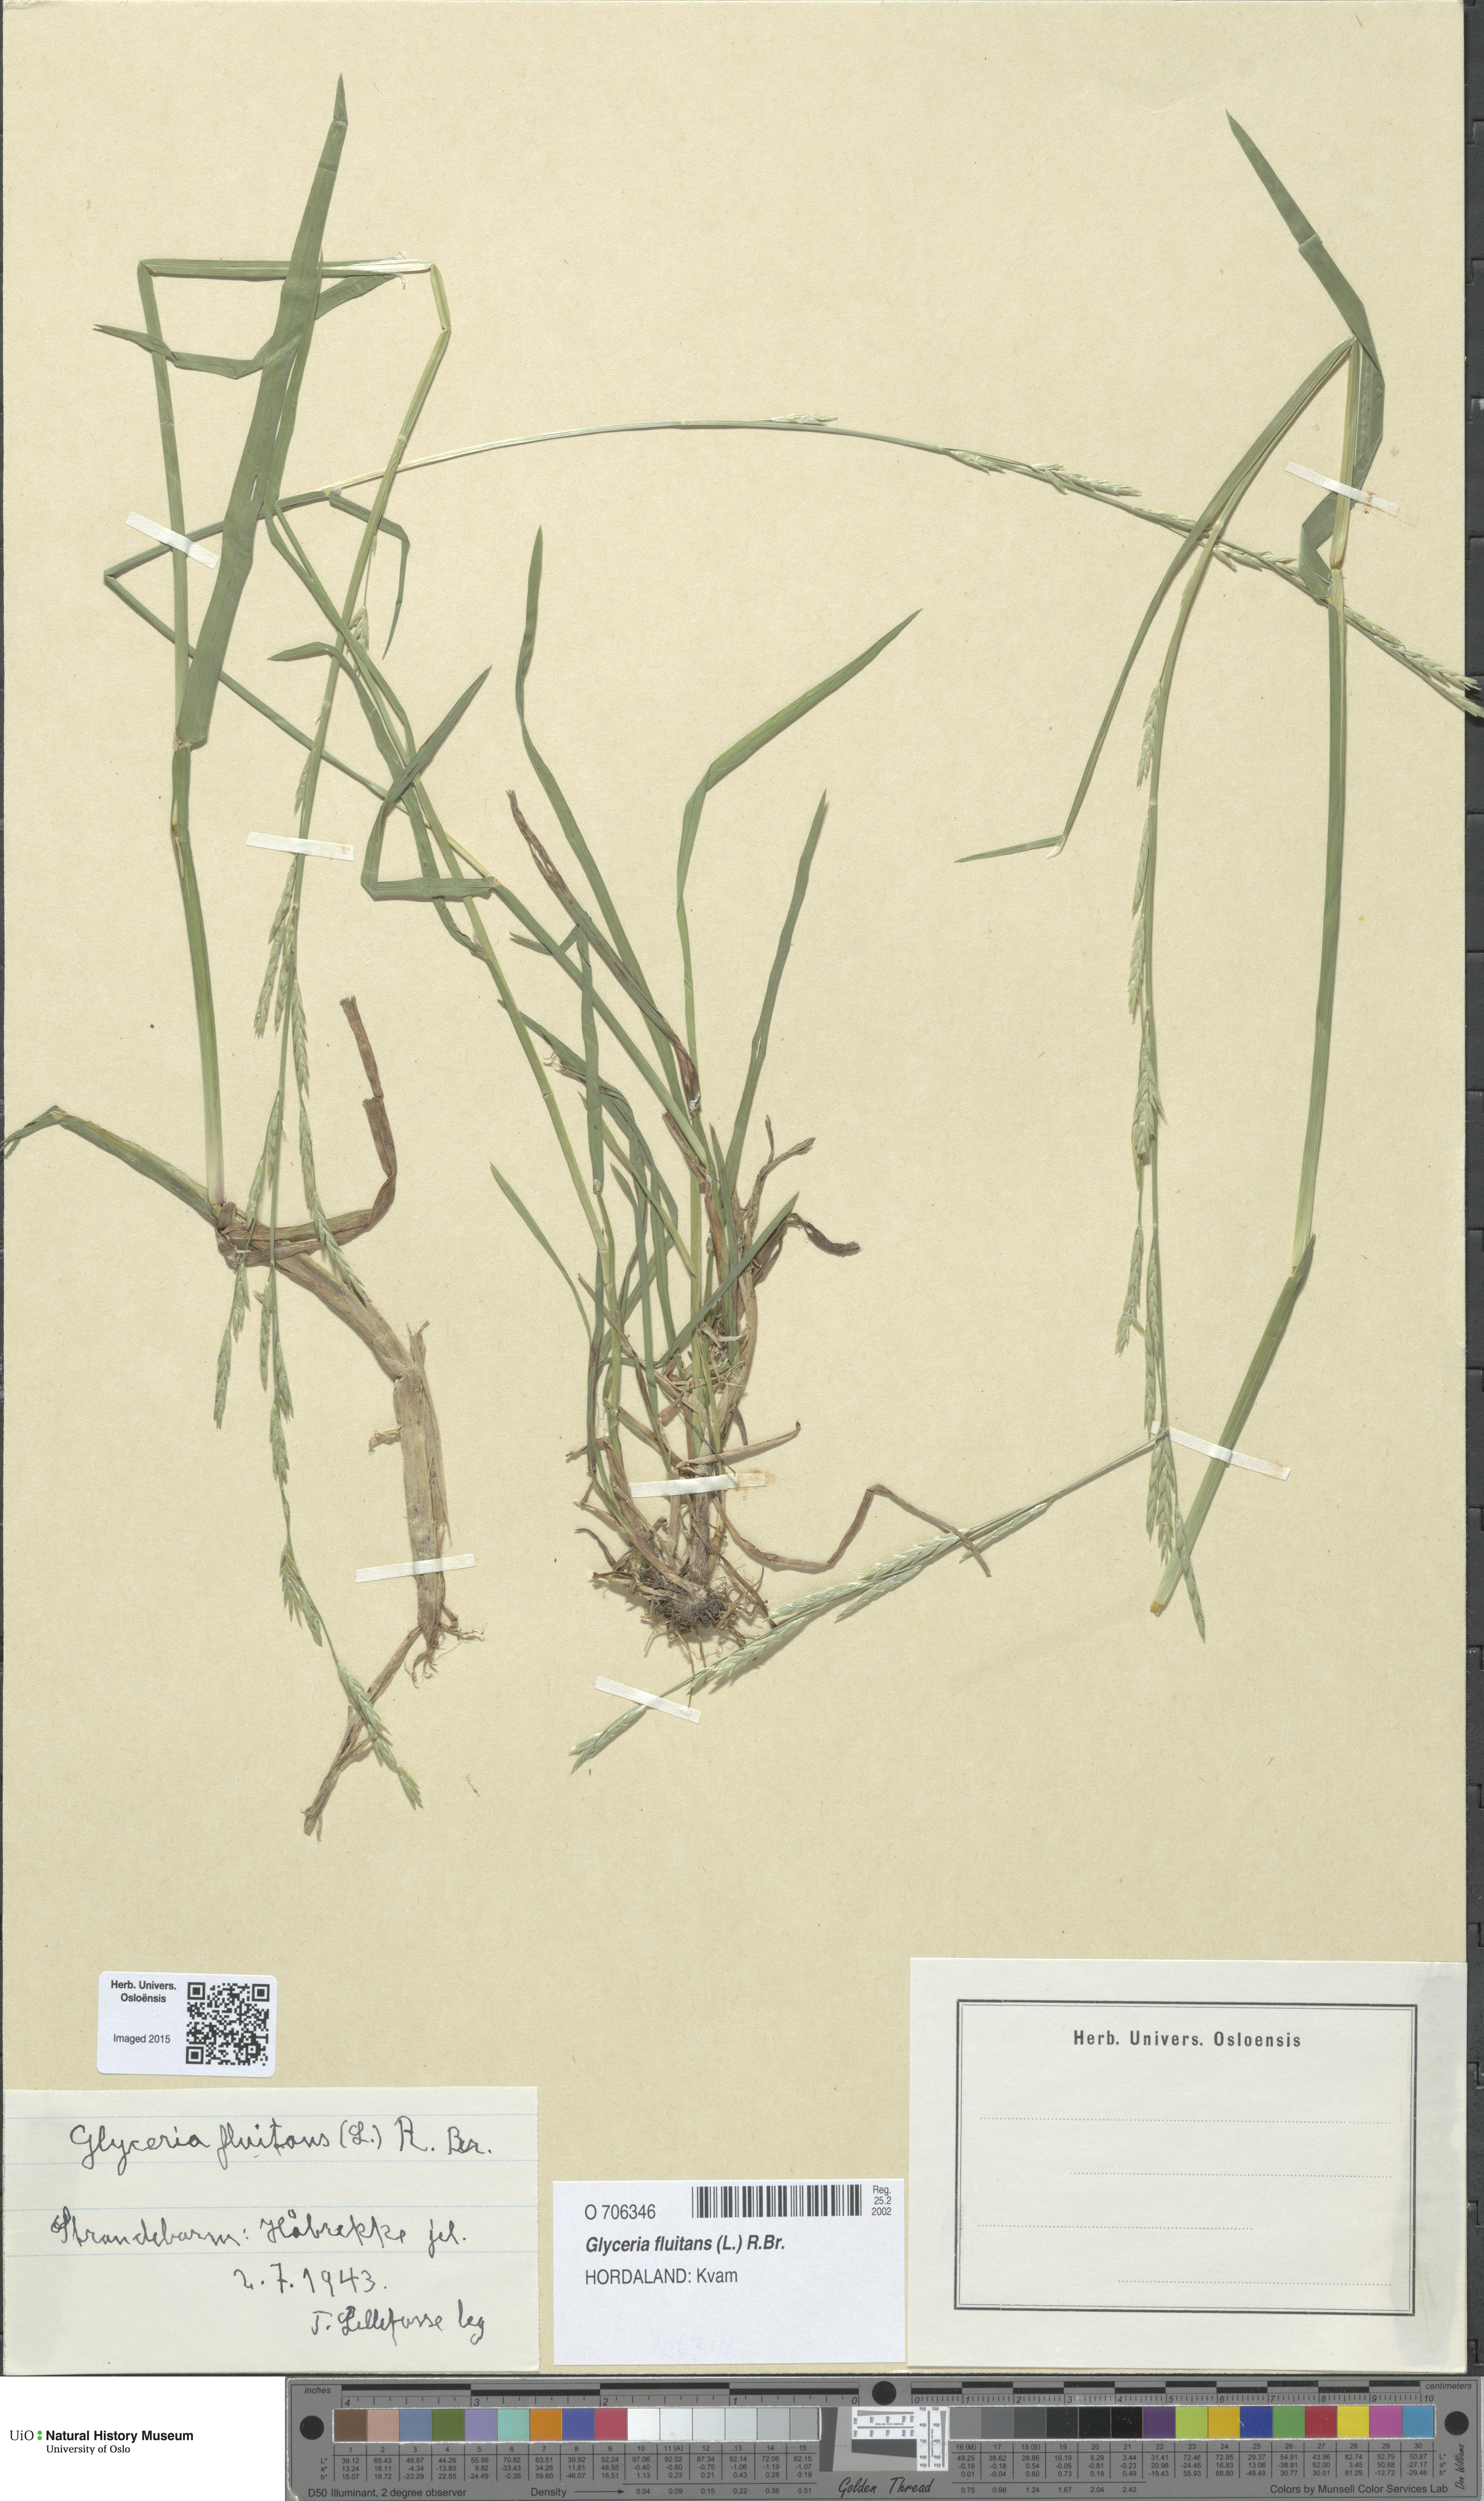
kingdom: Plantae
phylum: Tracheophyta
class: Liliopsida
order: Poales
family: Poaceae
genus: Glyceria
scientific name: Glyceria fluitans
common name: Floating sweet-grass
